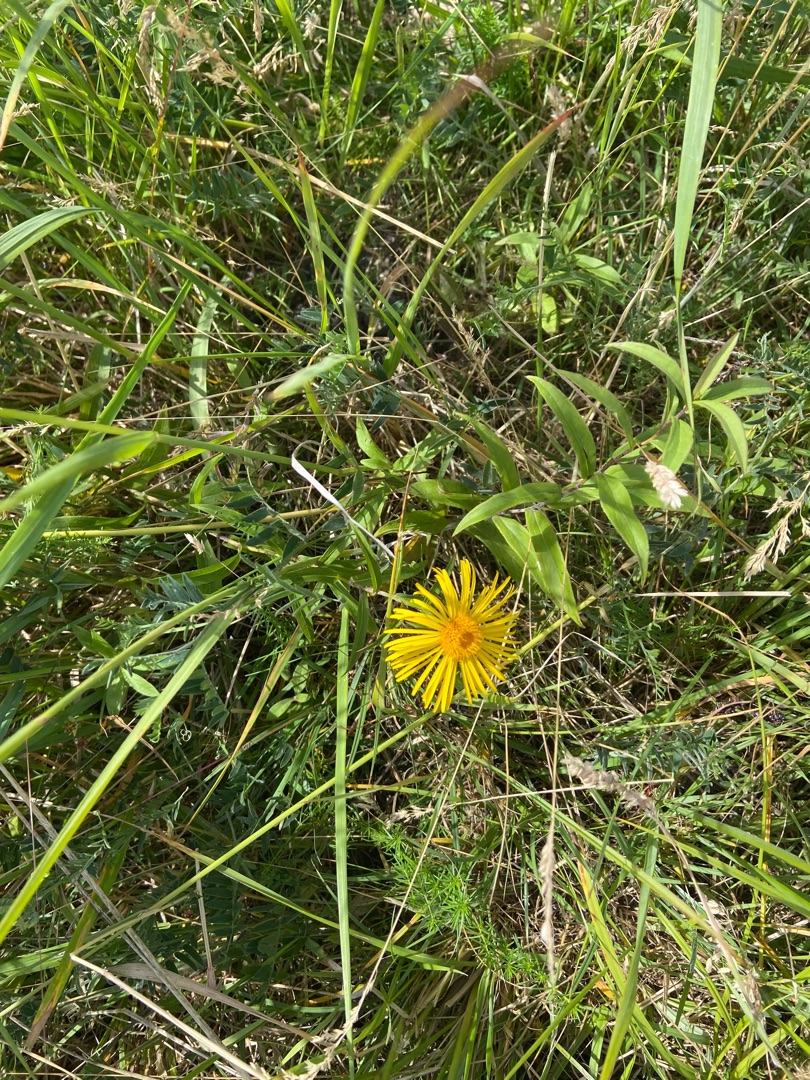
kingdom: Plantae
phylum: Tracheophyta
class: Magnoliopsida
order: Asterales
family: Asteraceae
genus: Pentanema
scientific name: Pentanema salicinum
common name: Pile-alant
